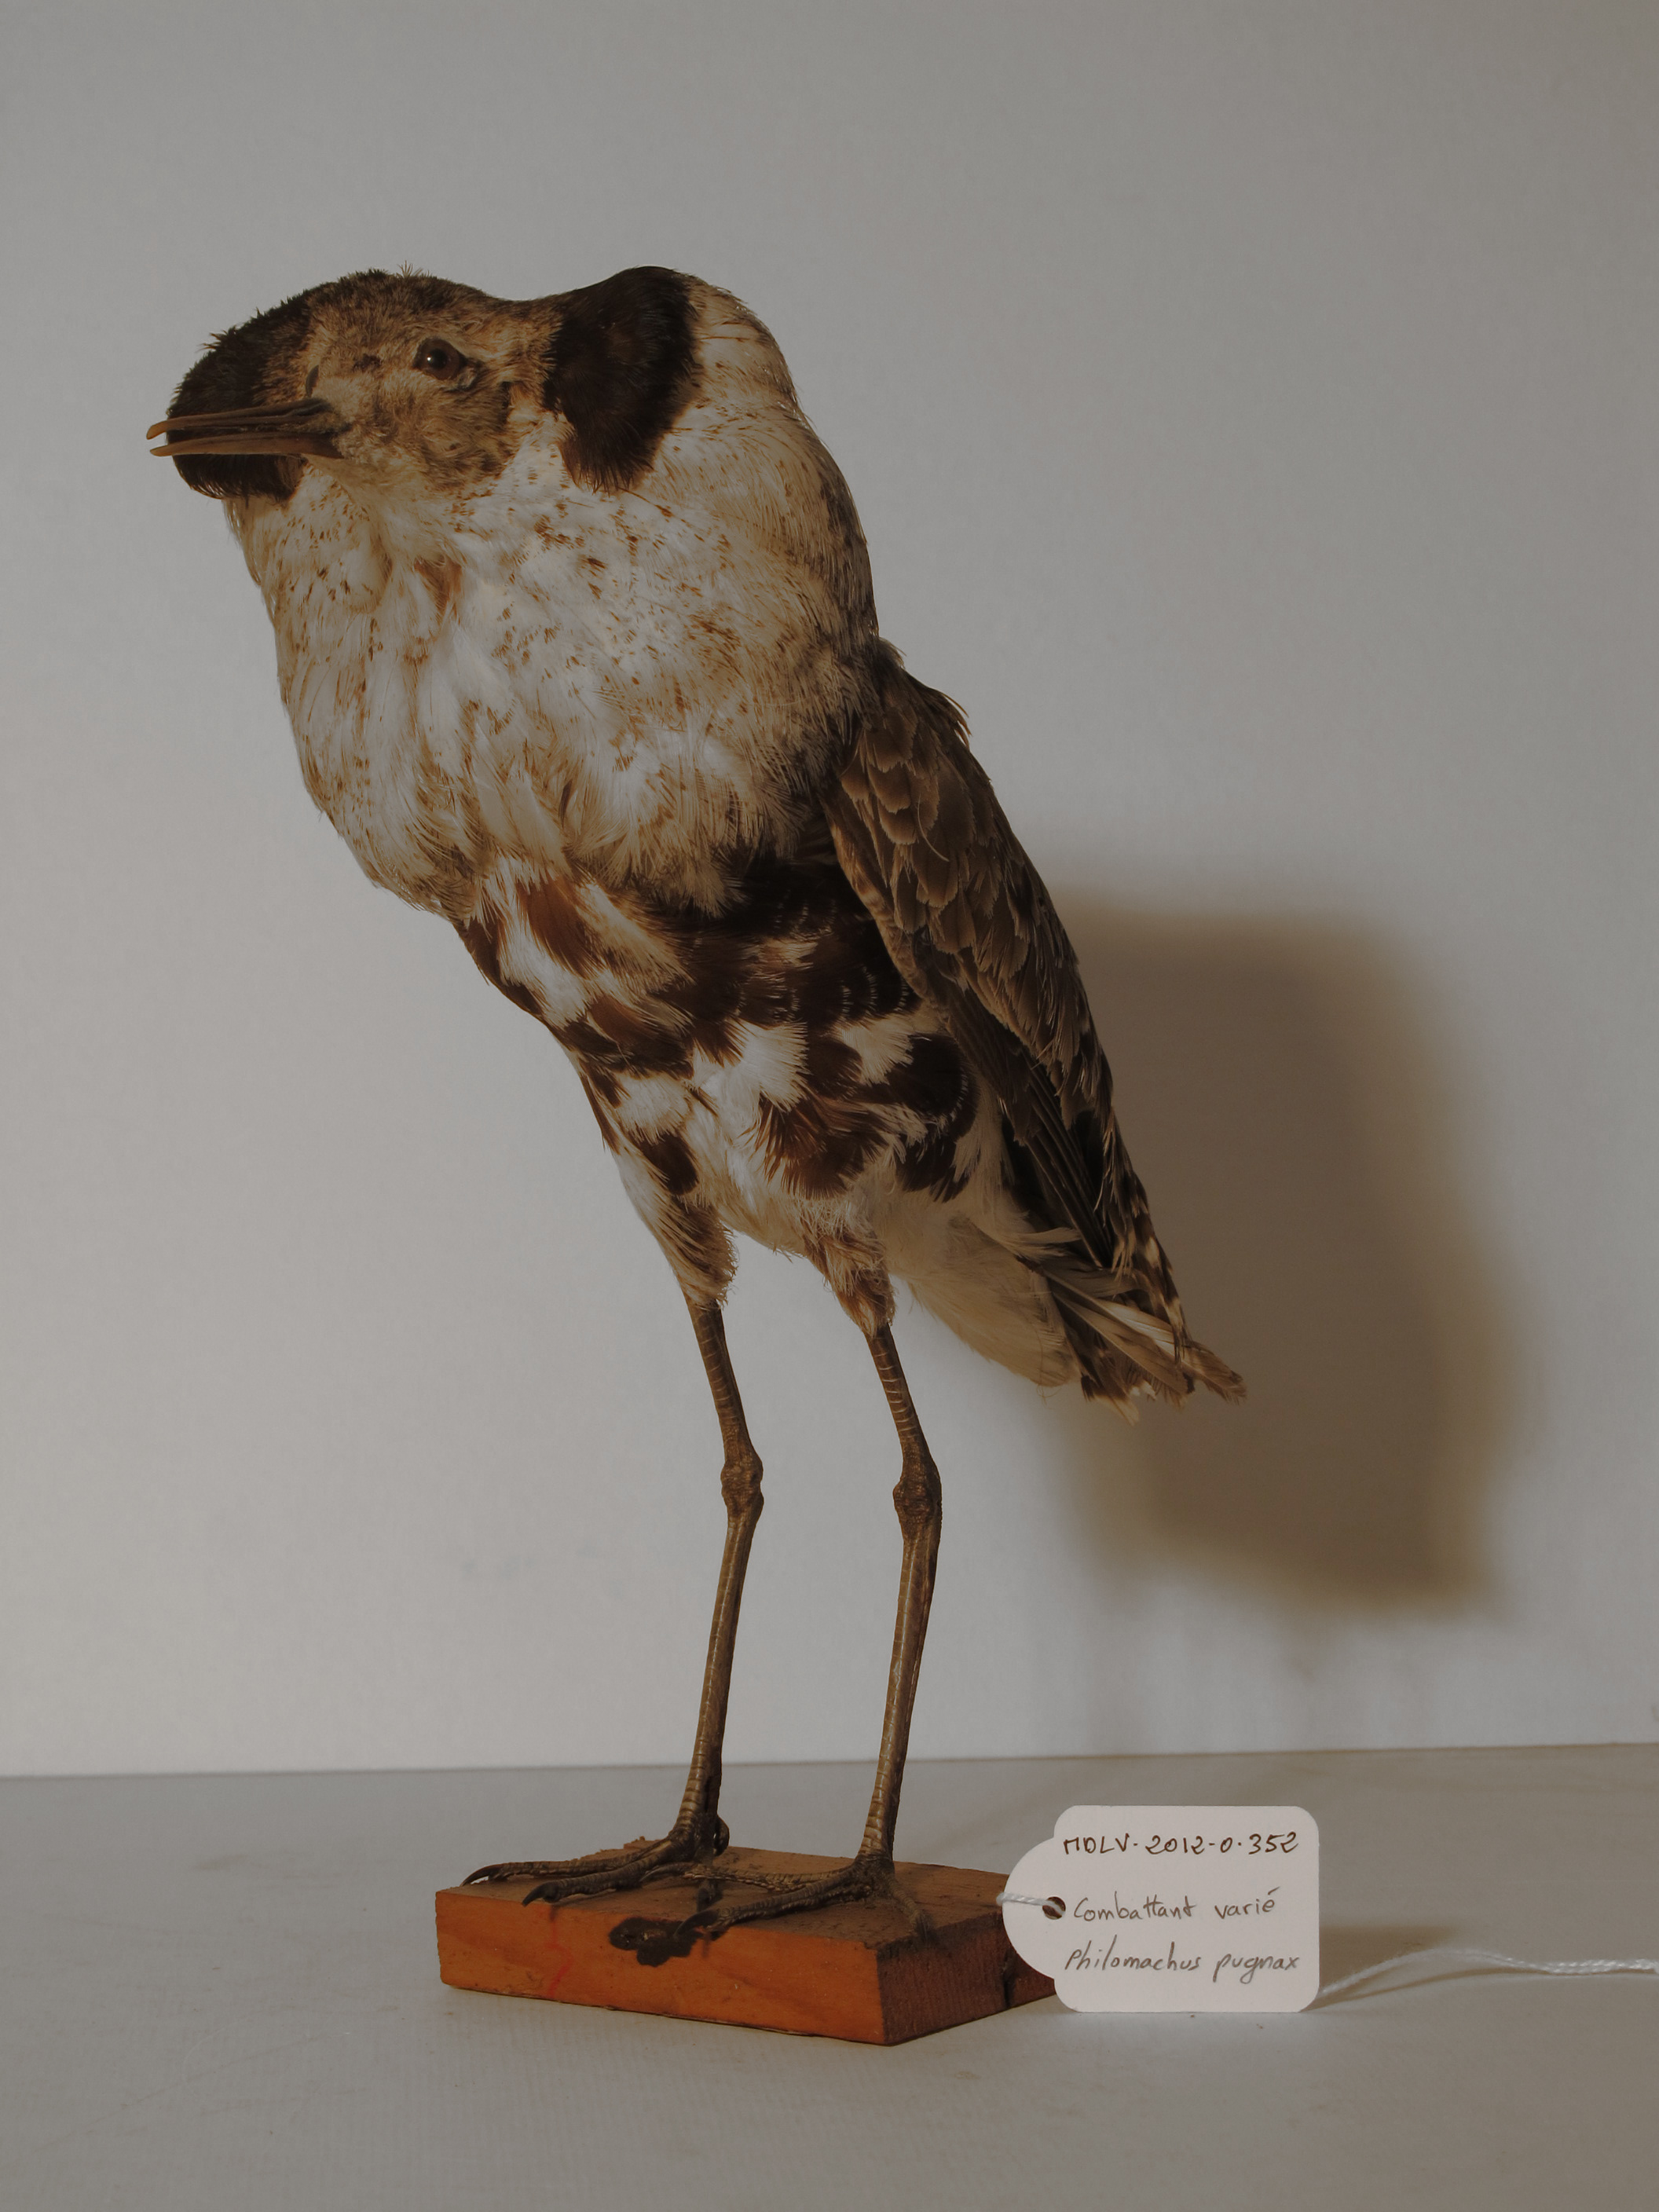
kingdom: Animalia
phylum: Chordata
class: Aves
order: Charadriiformes
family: Scolopacidae
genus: Calidris
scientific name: Calidris pugnax
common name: Ruff
